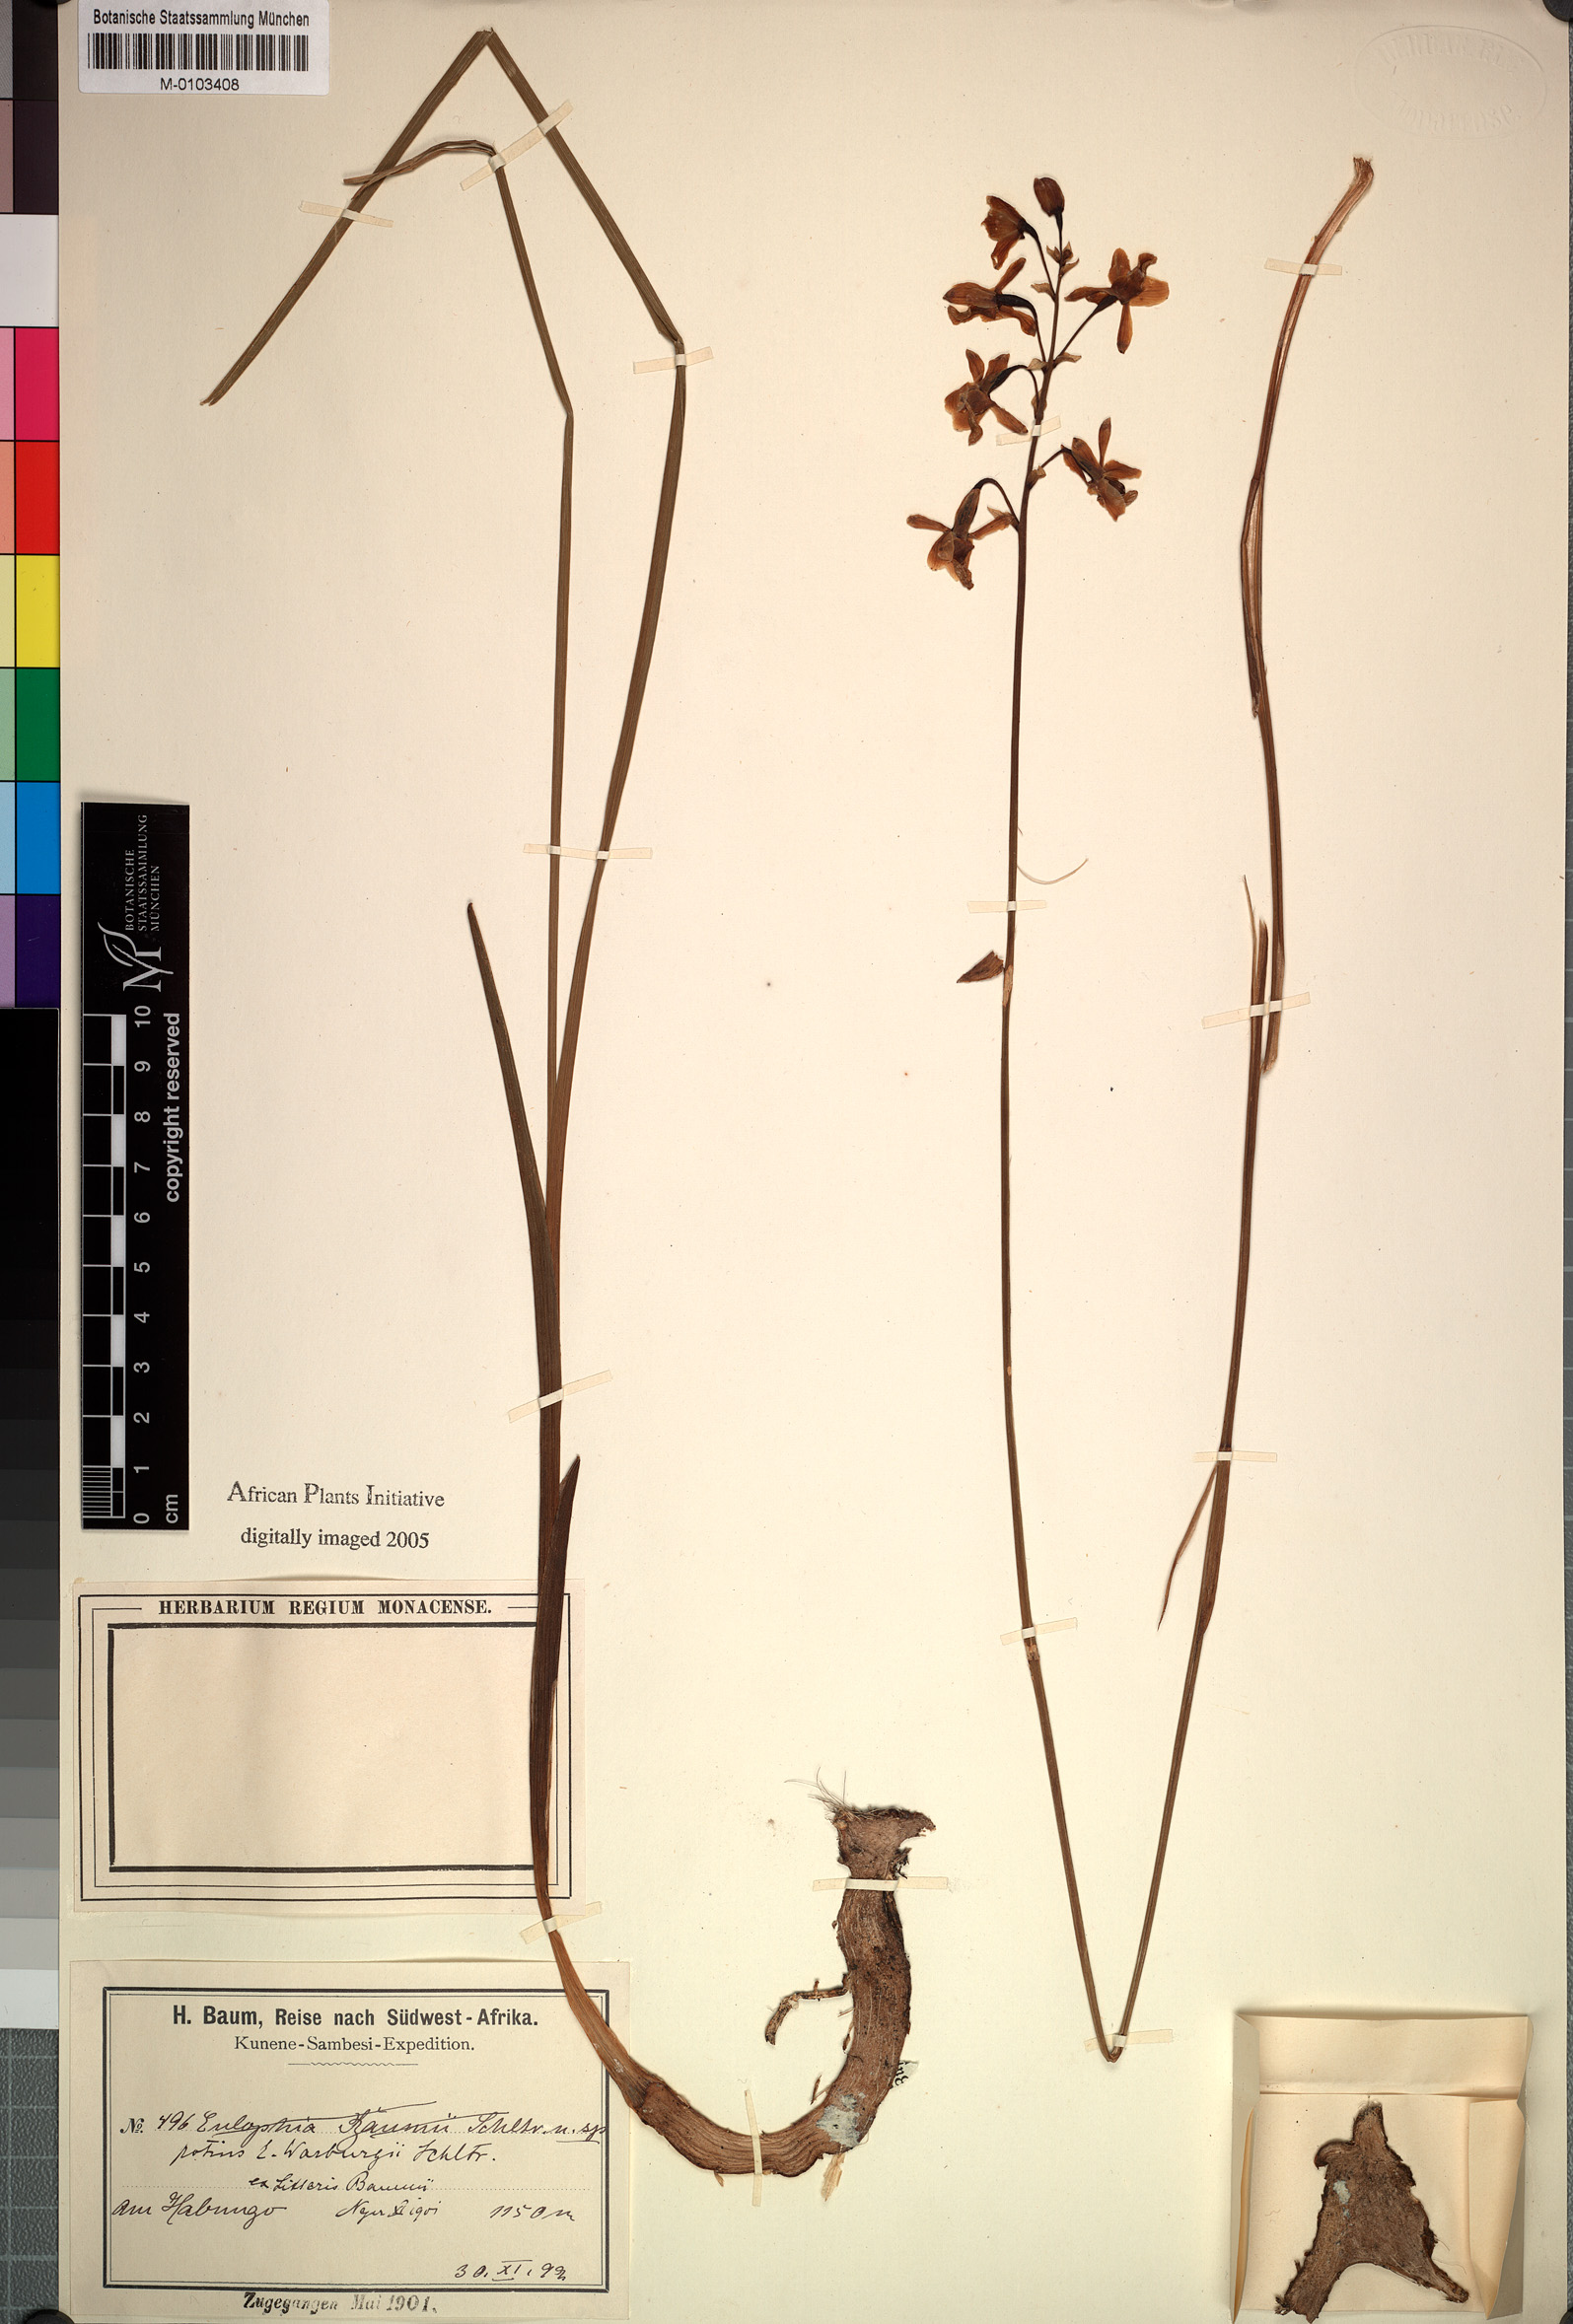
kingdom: Plantae
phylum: Tracheophyta
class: Liliopsida
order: Asparagales
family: Orchidaceae
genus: Eulophia
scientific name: Eulophia malangana
